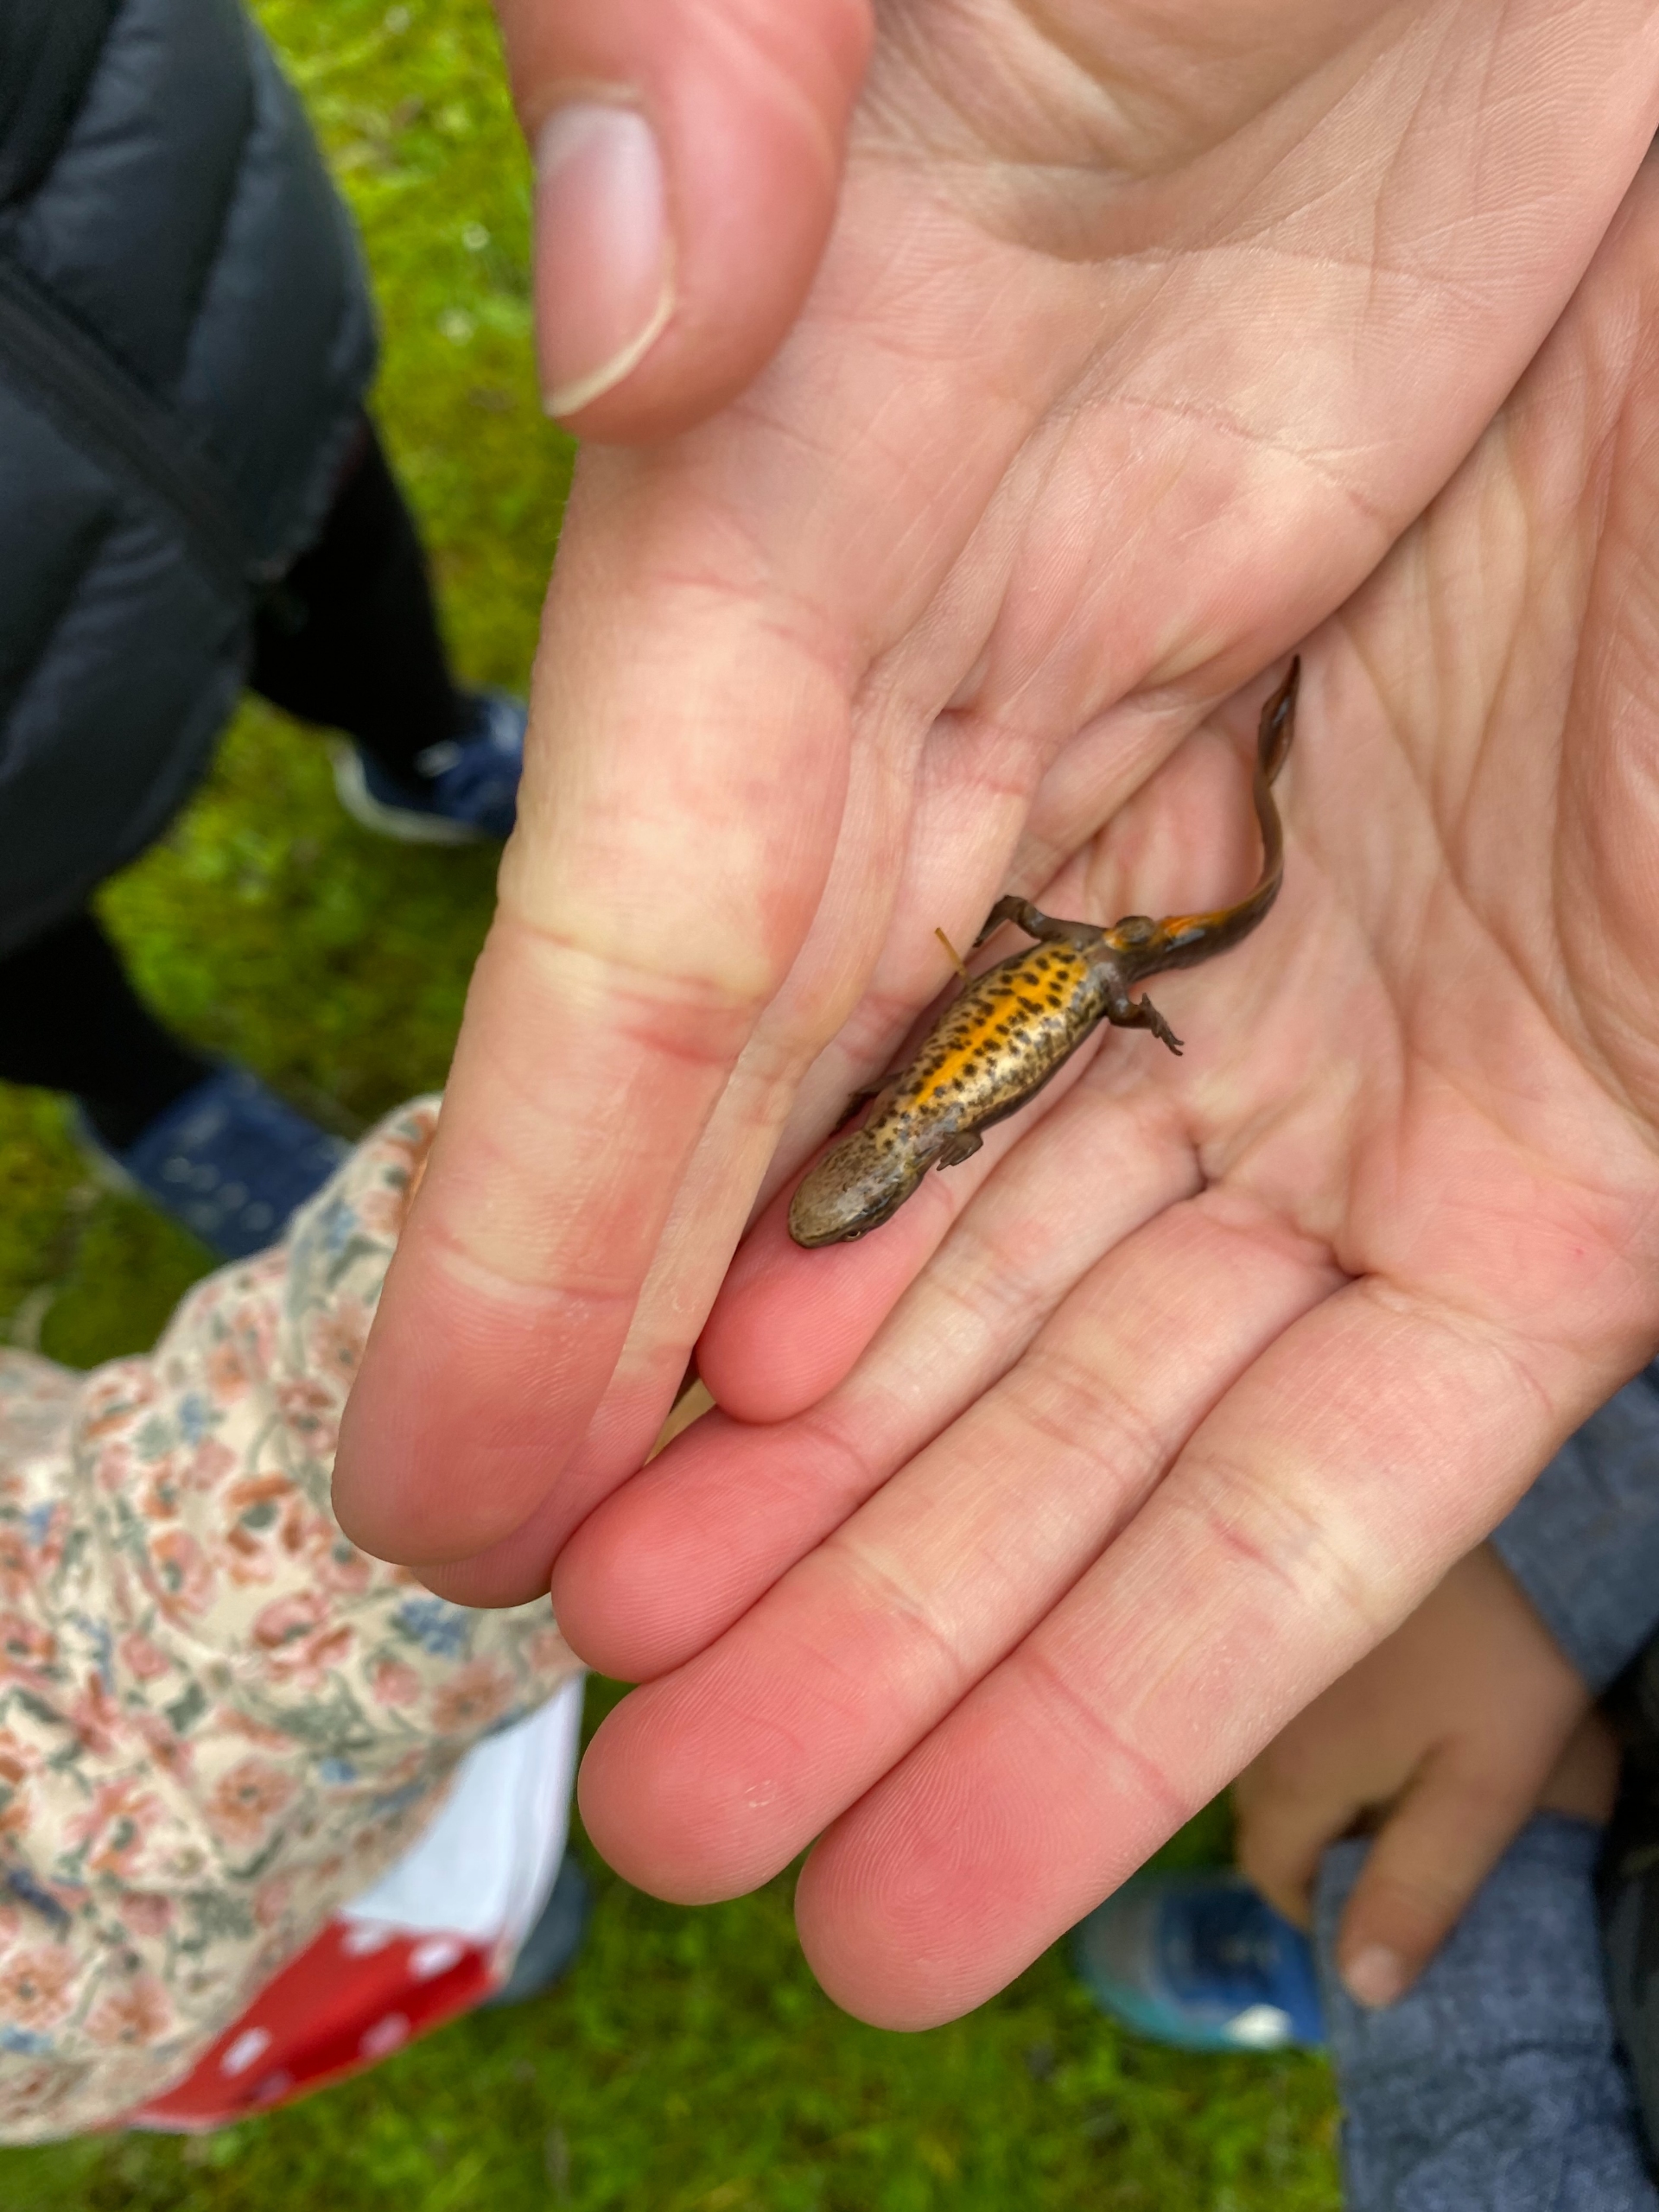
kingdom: Animalia
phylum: Chordata
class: Amphibia
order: Caudata
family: Salamandridae
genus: Lissotriton
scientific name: Lissotriton vulgaris
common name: Lille vandsalamander
